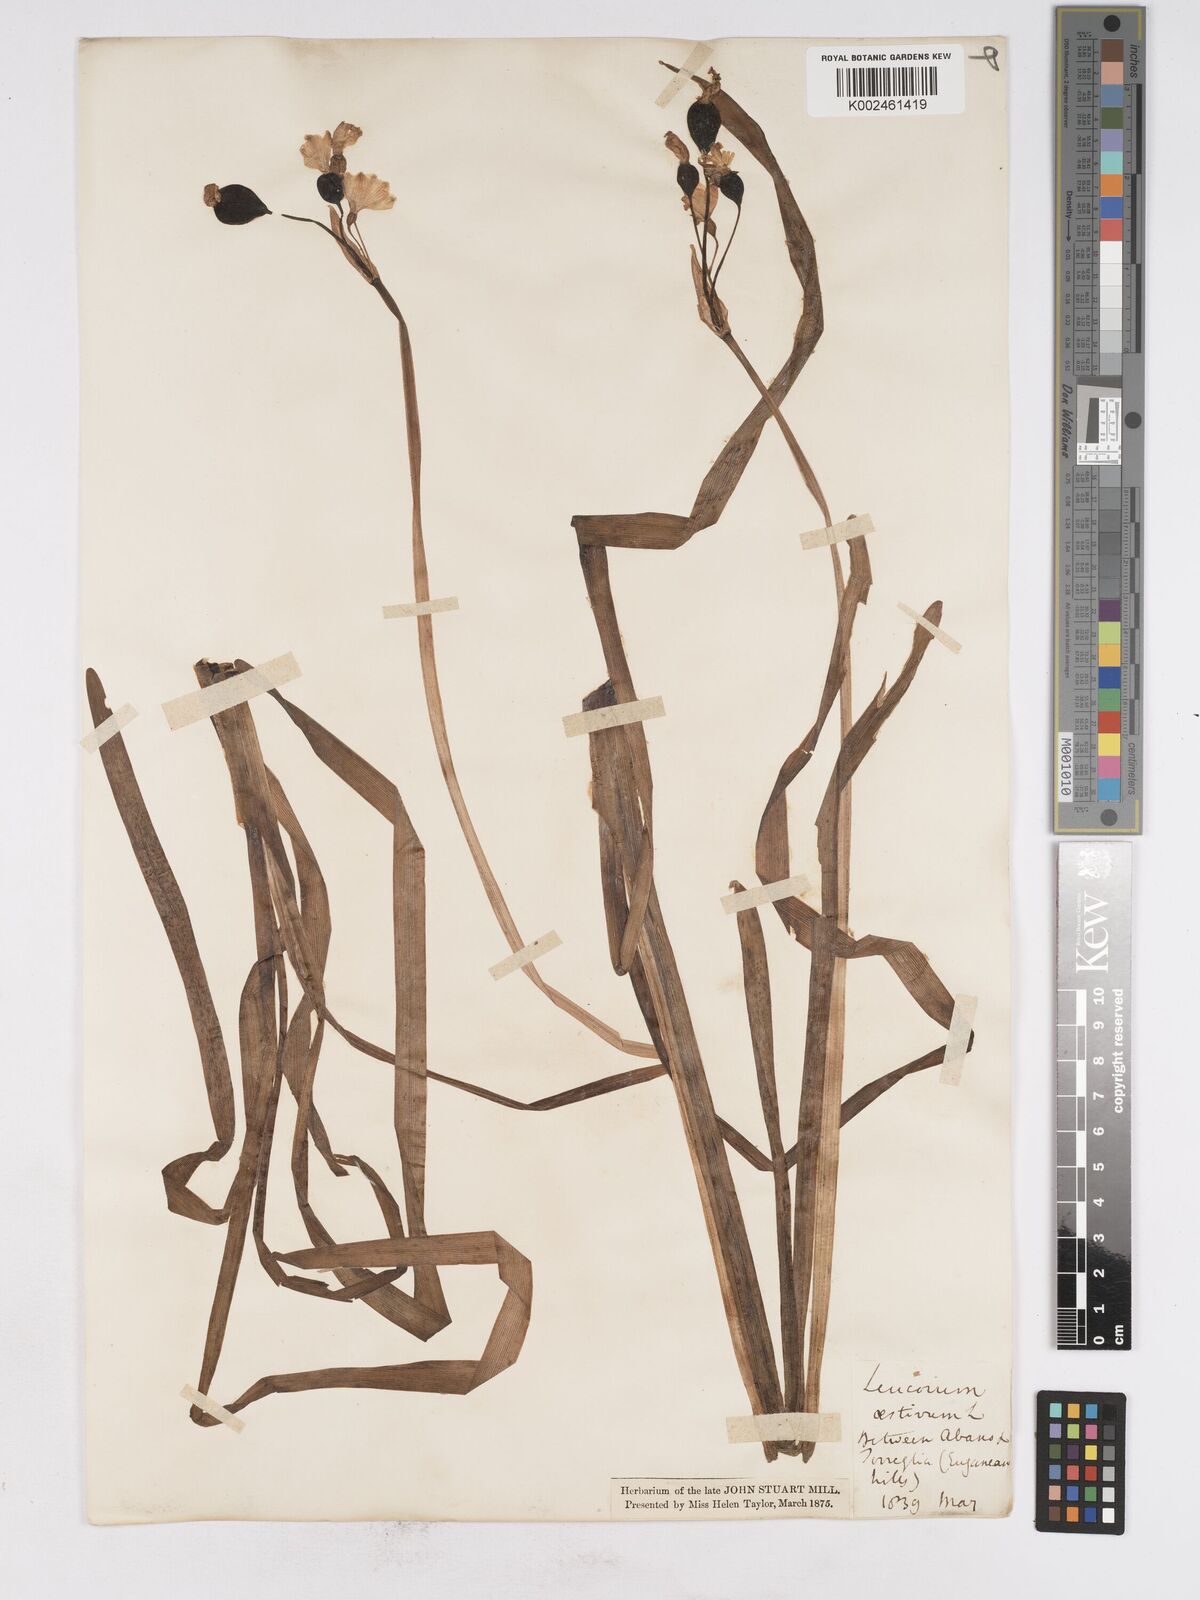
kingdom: Plantae
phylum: Tracheophyta
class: Liliopsida
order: Asparagales
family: Amaryllidaceae
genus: Leucojum
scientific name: Leucojum aestivum
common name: Summer snowflake
